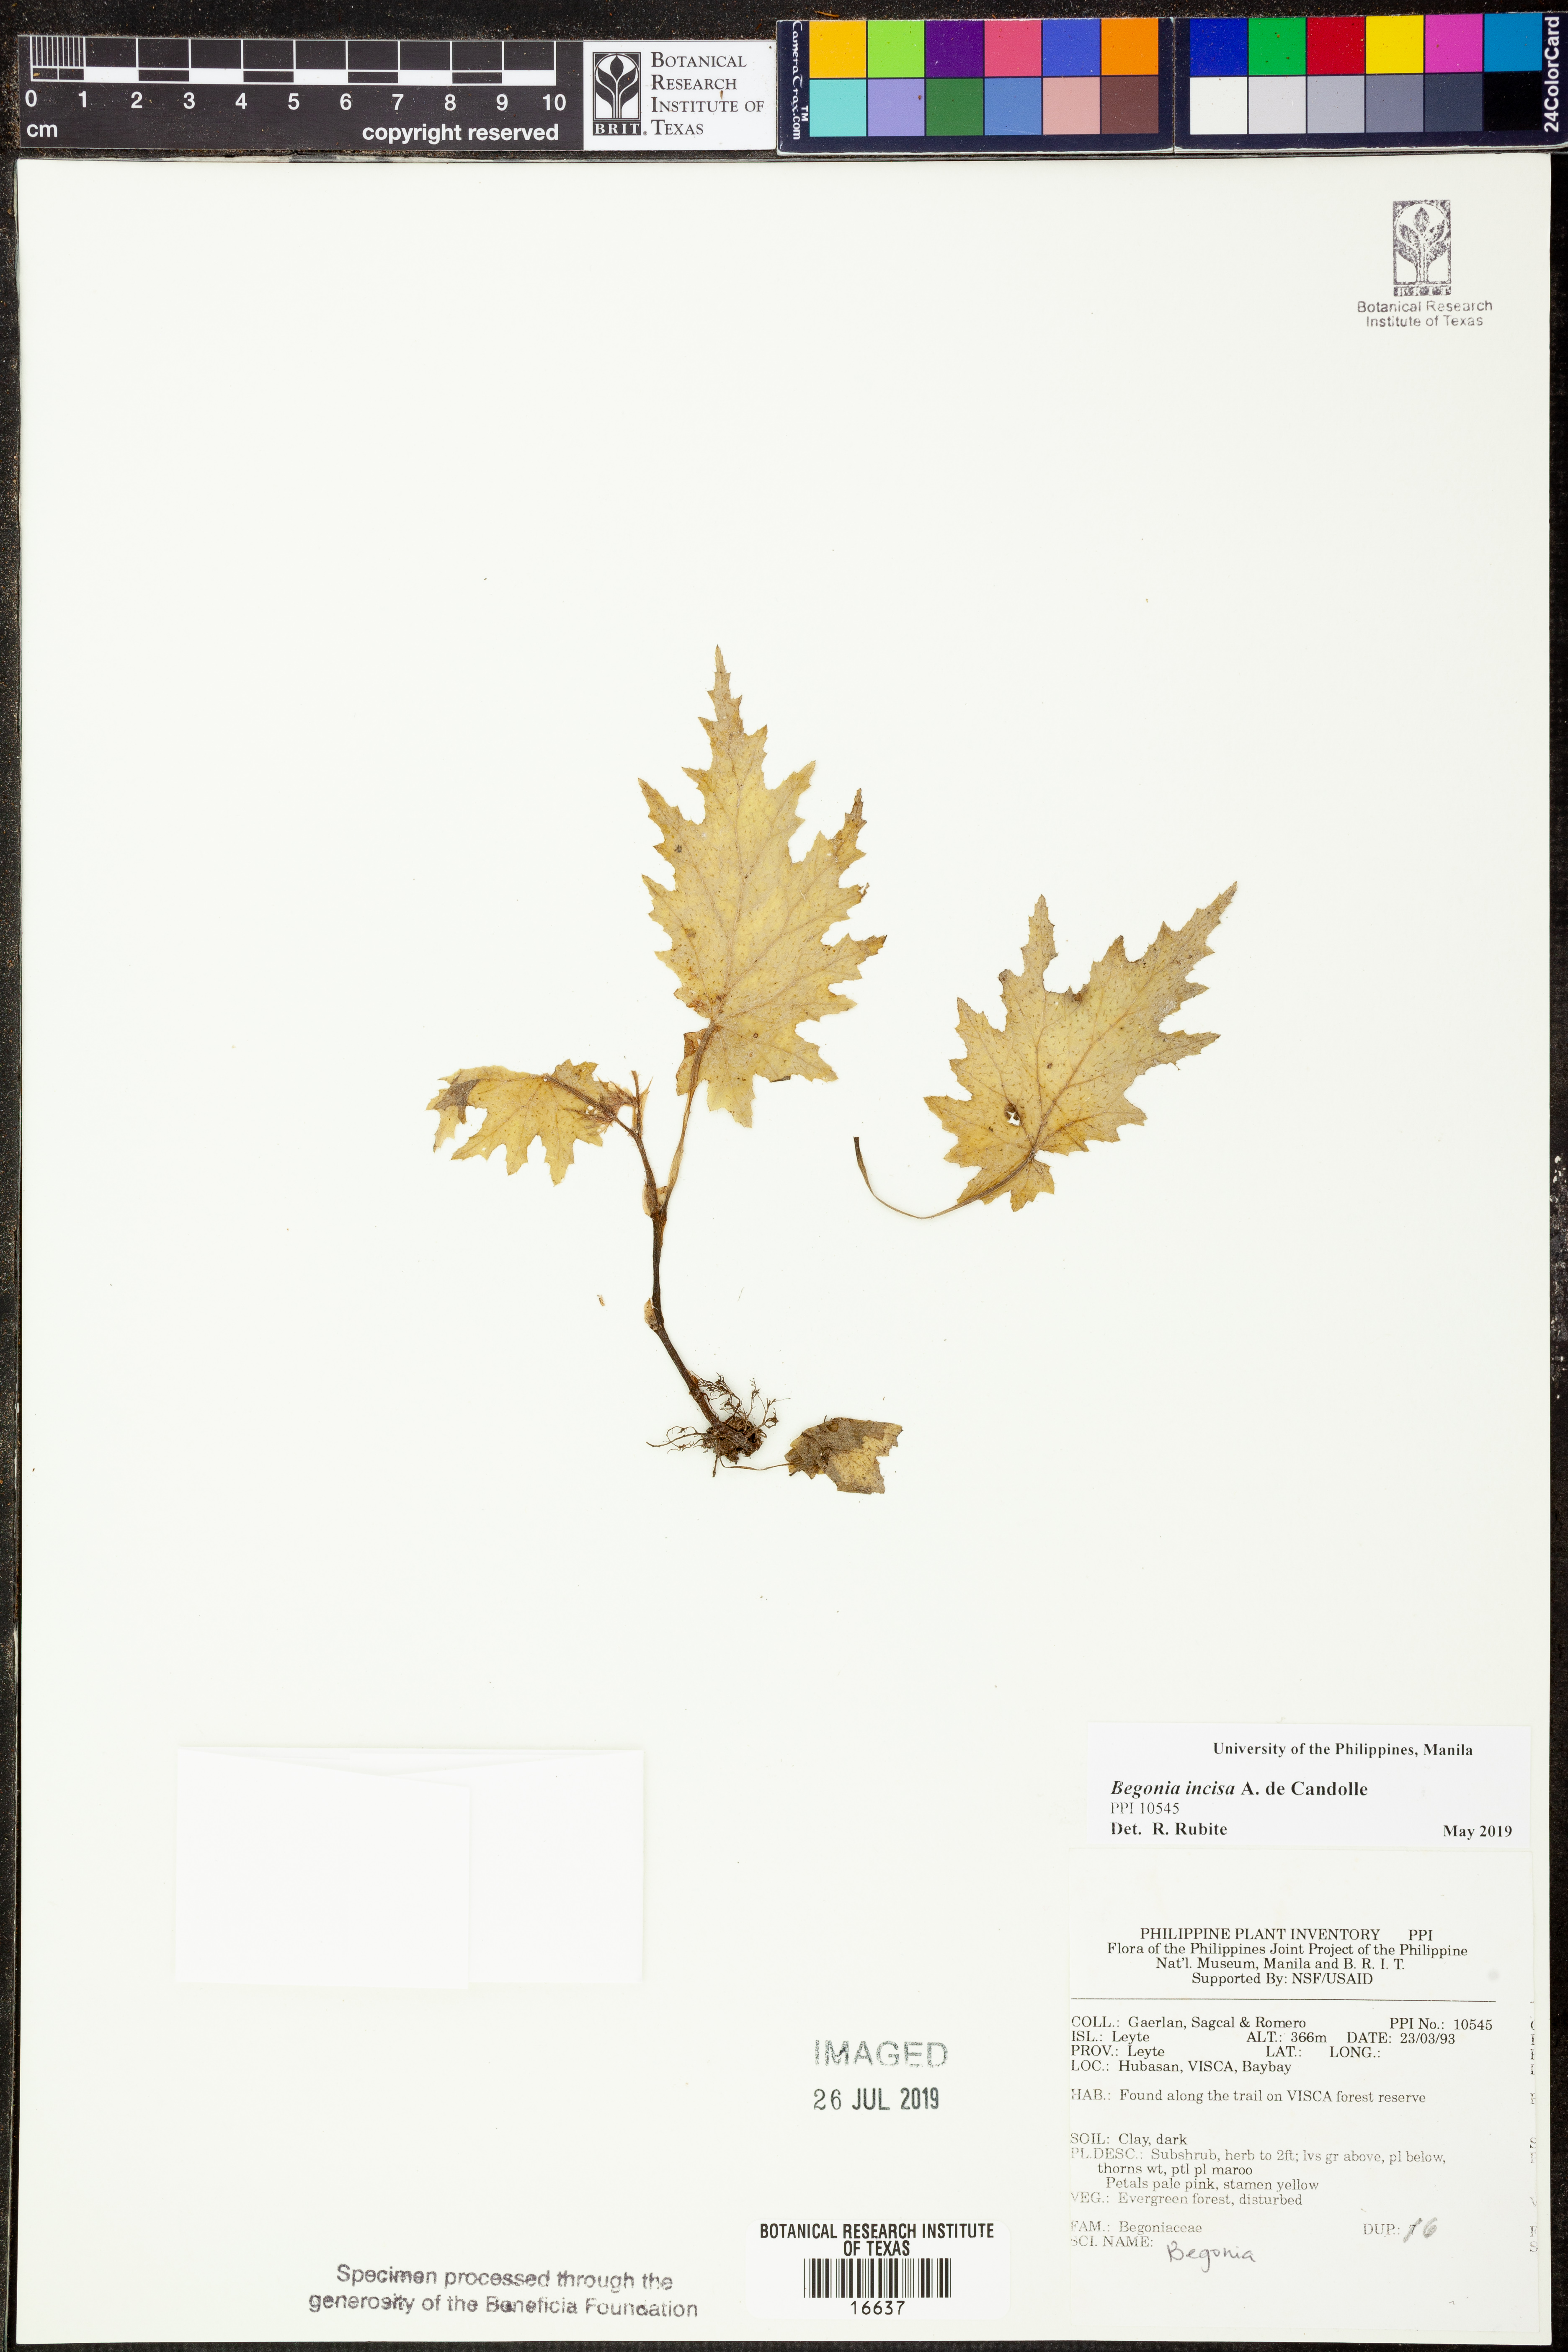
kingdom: Plantae
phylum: Tracheophyta
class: Magnoliopsida
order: Cucurbitales
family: Begoniaceae
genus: Begonia
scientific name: Begonia incisa
